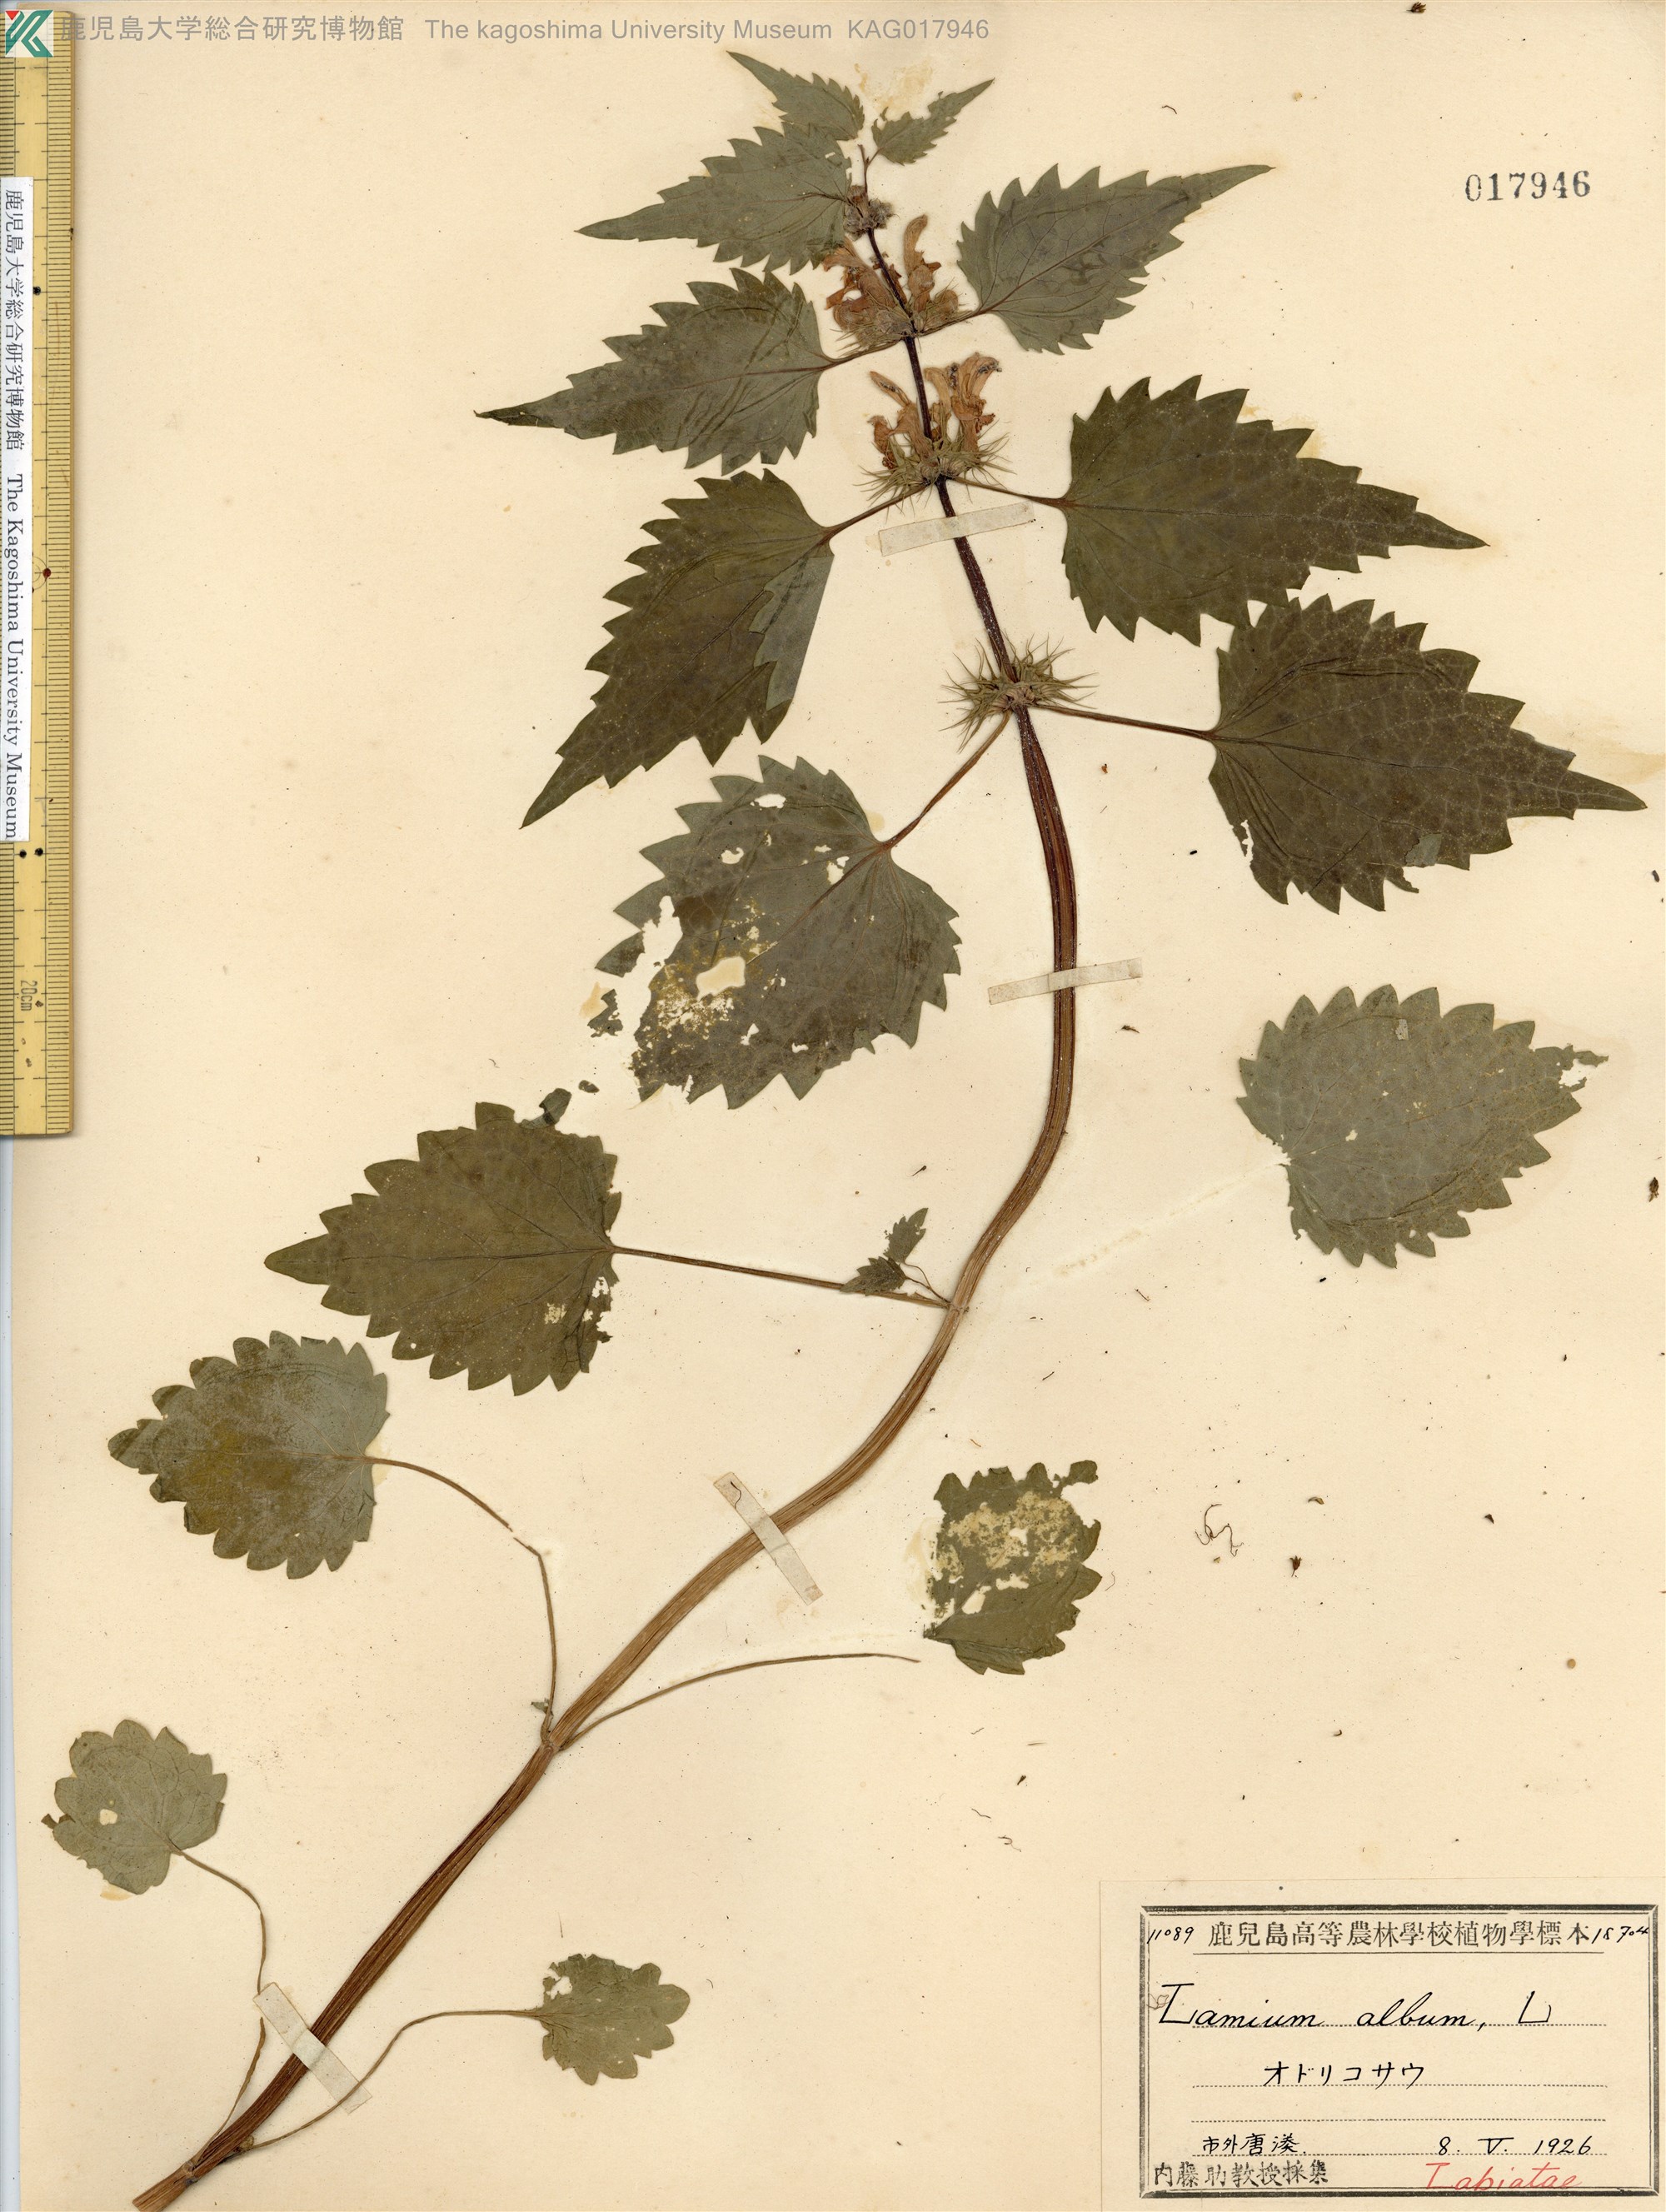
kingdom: Plantae
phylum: Tracheophyta
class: Magnoliopsida
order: Lamiales
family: Lamiaceae
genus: Lamium
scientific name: Lamium album
